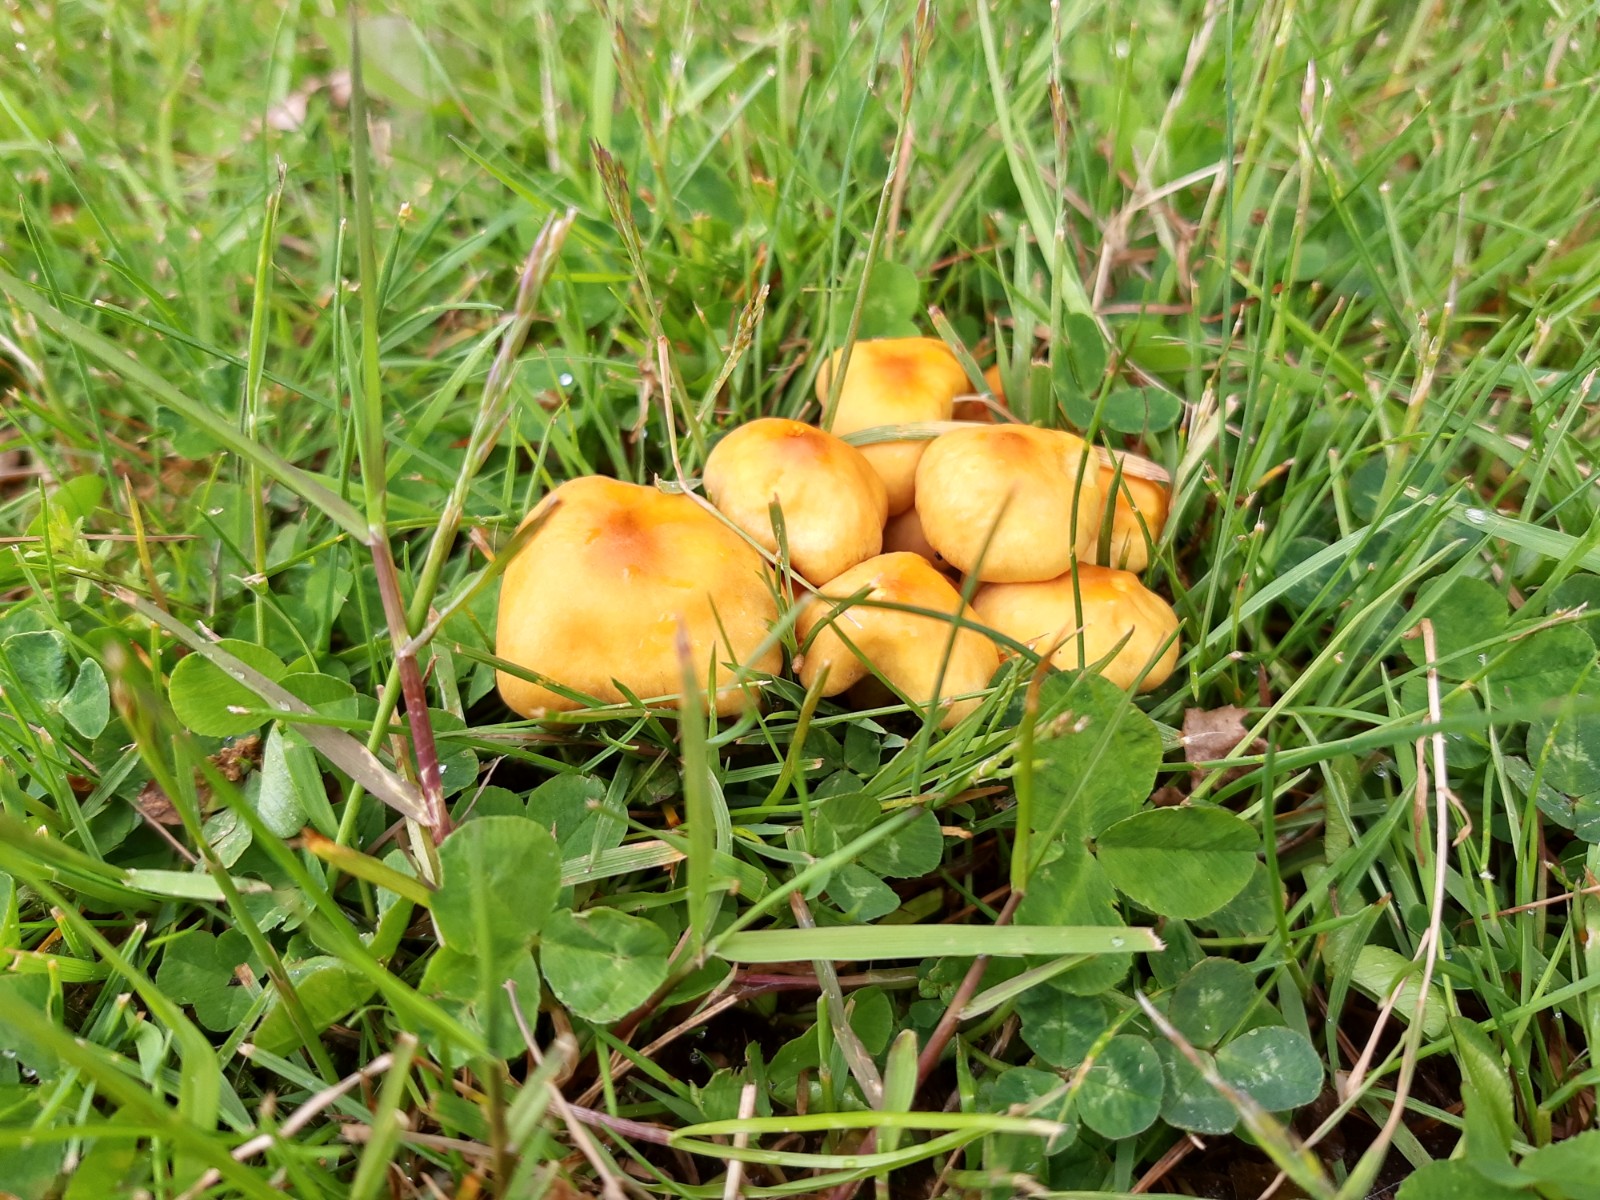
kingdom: Fungi
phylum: Basidiomycota
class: Agaricomycetes
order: Agaricales
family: Strophariaceae
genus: Hypholoma
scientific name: Hypholoma fasciculare
